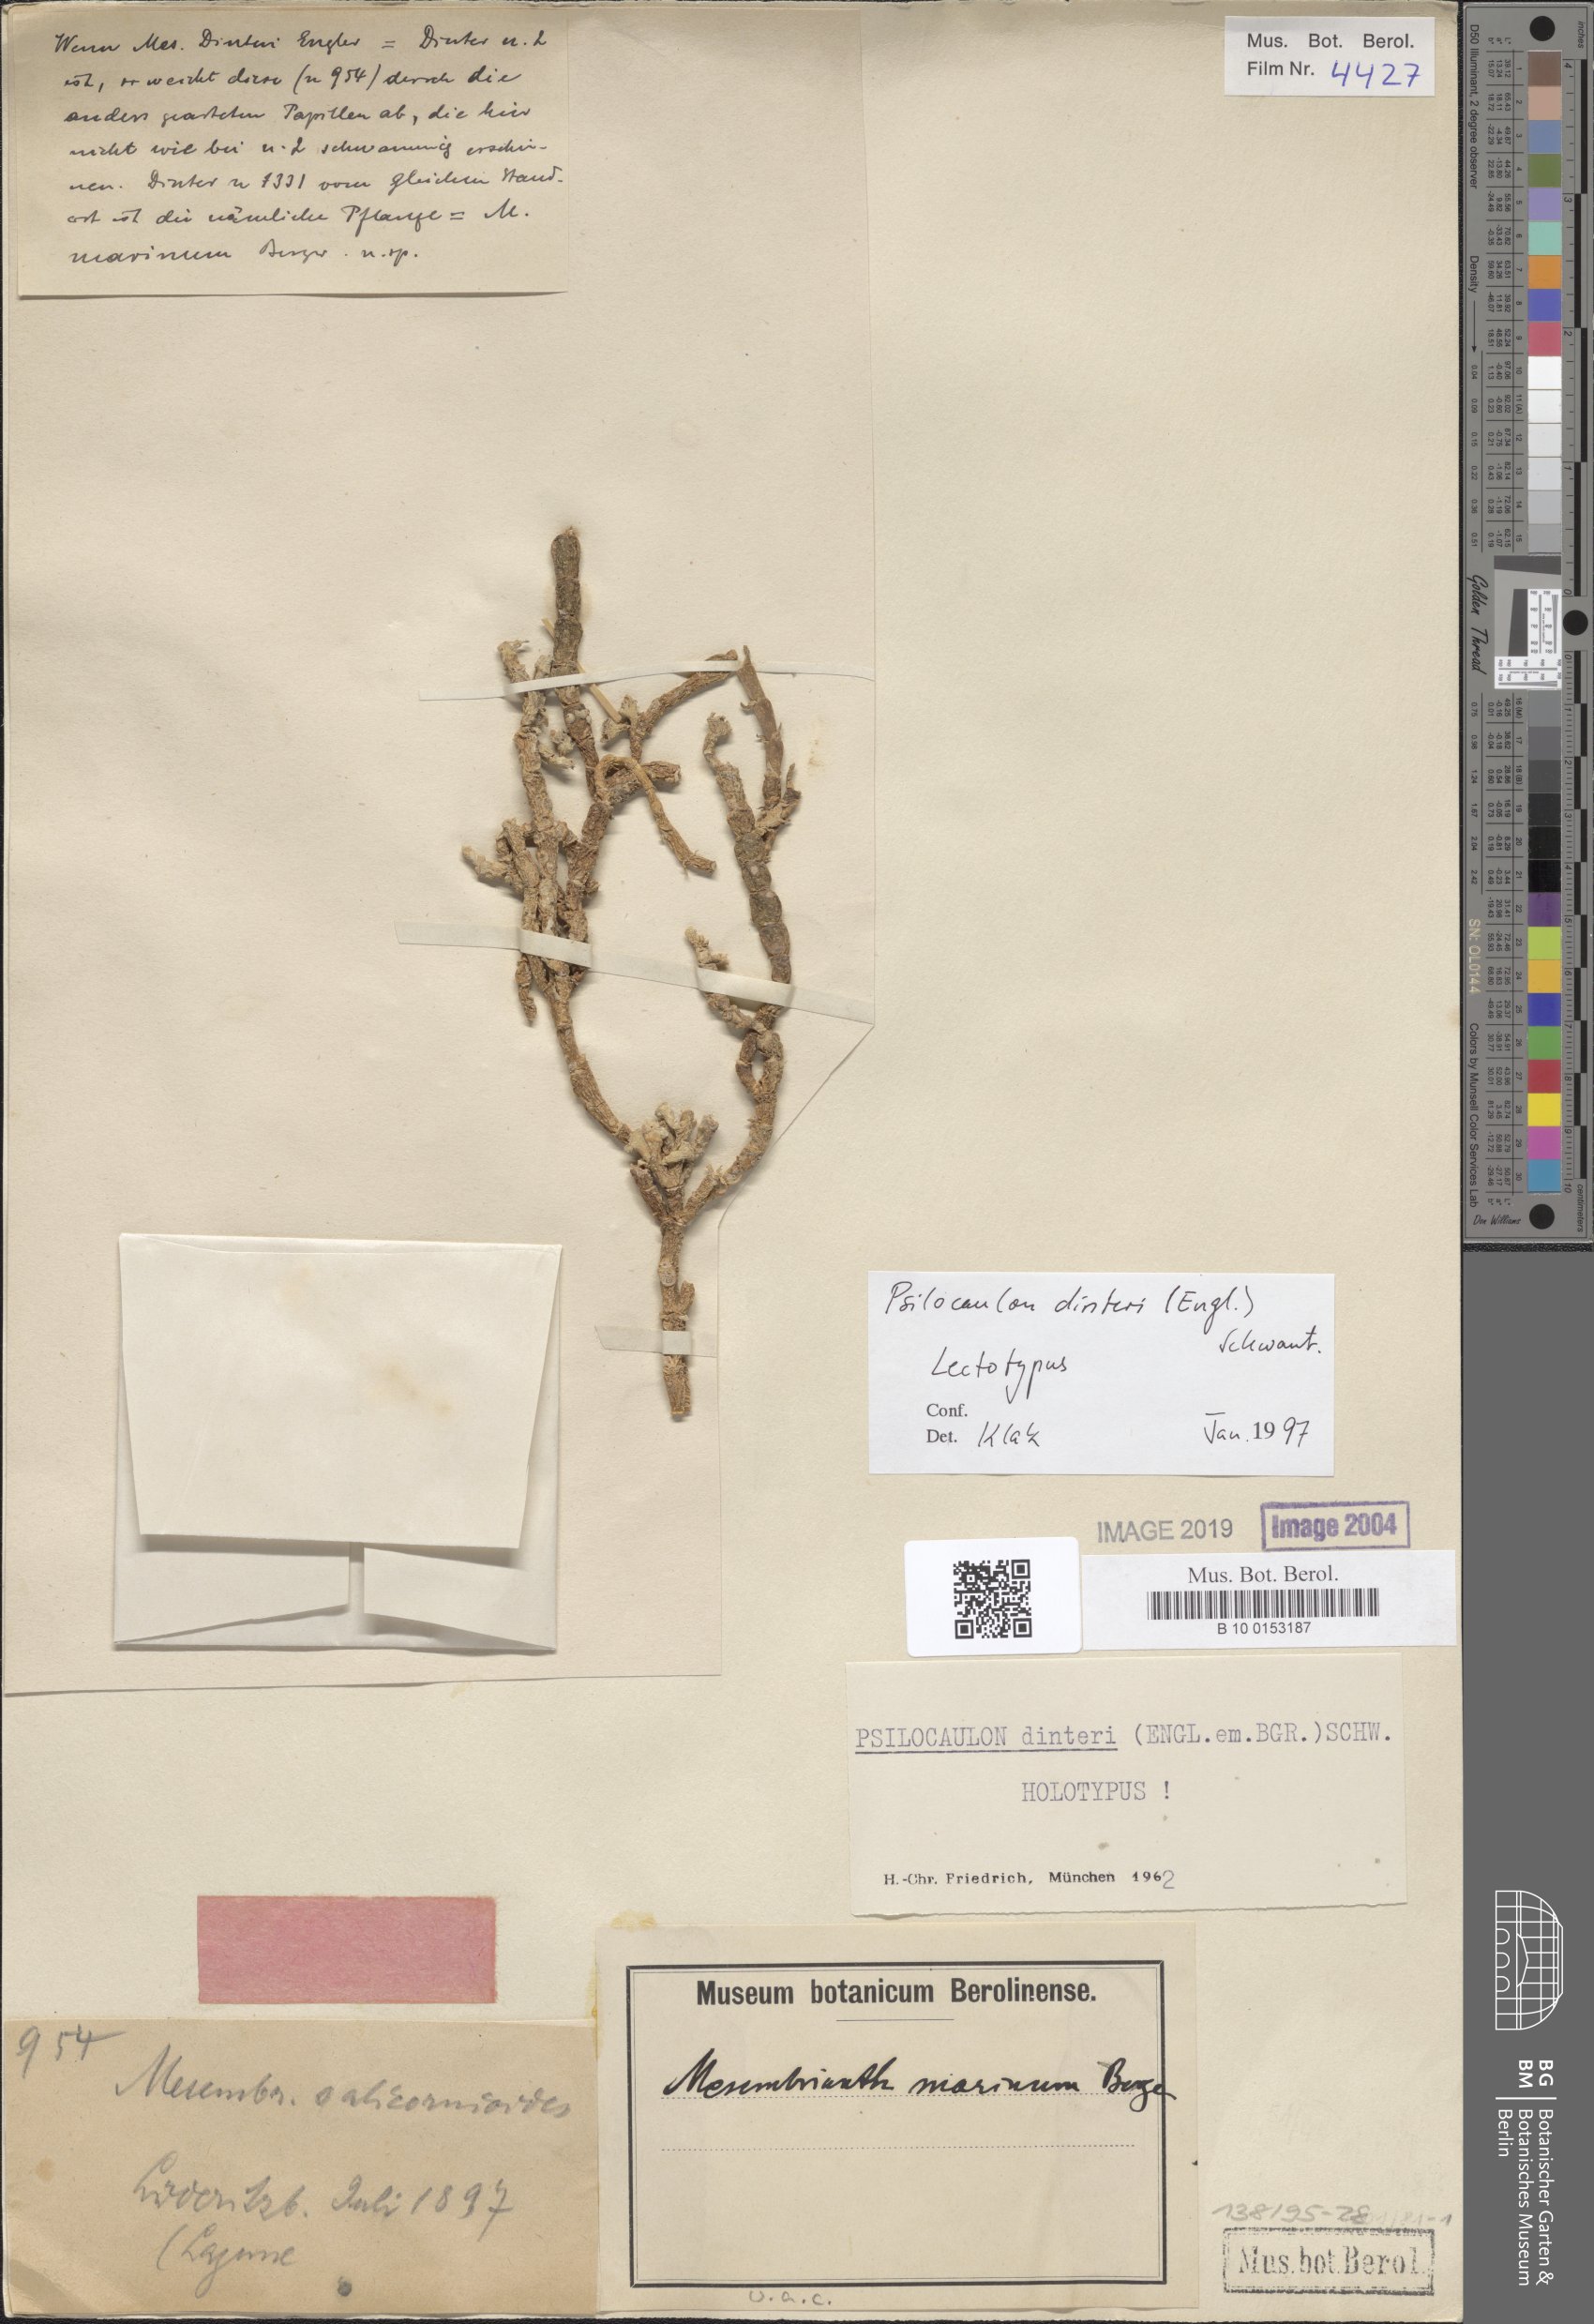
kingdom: Plantae
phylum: Tracheophyta
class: Magnoliopsida
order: Caryophyllales
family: Aizoaceae
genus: Mesembryanthemum
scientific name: Mesembryanthemum dinteri
